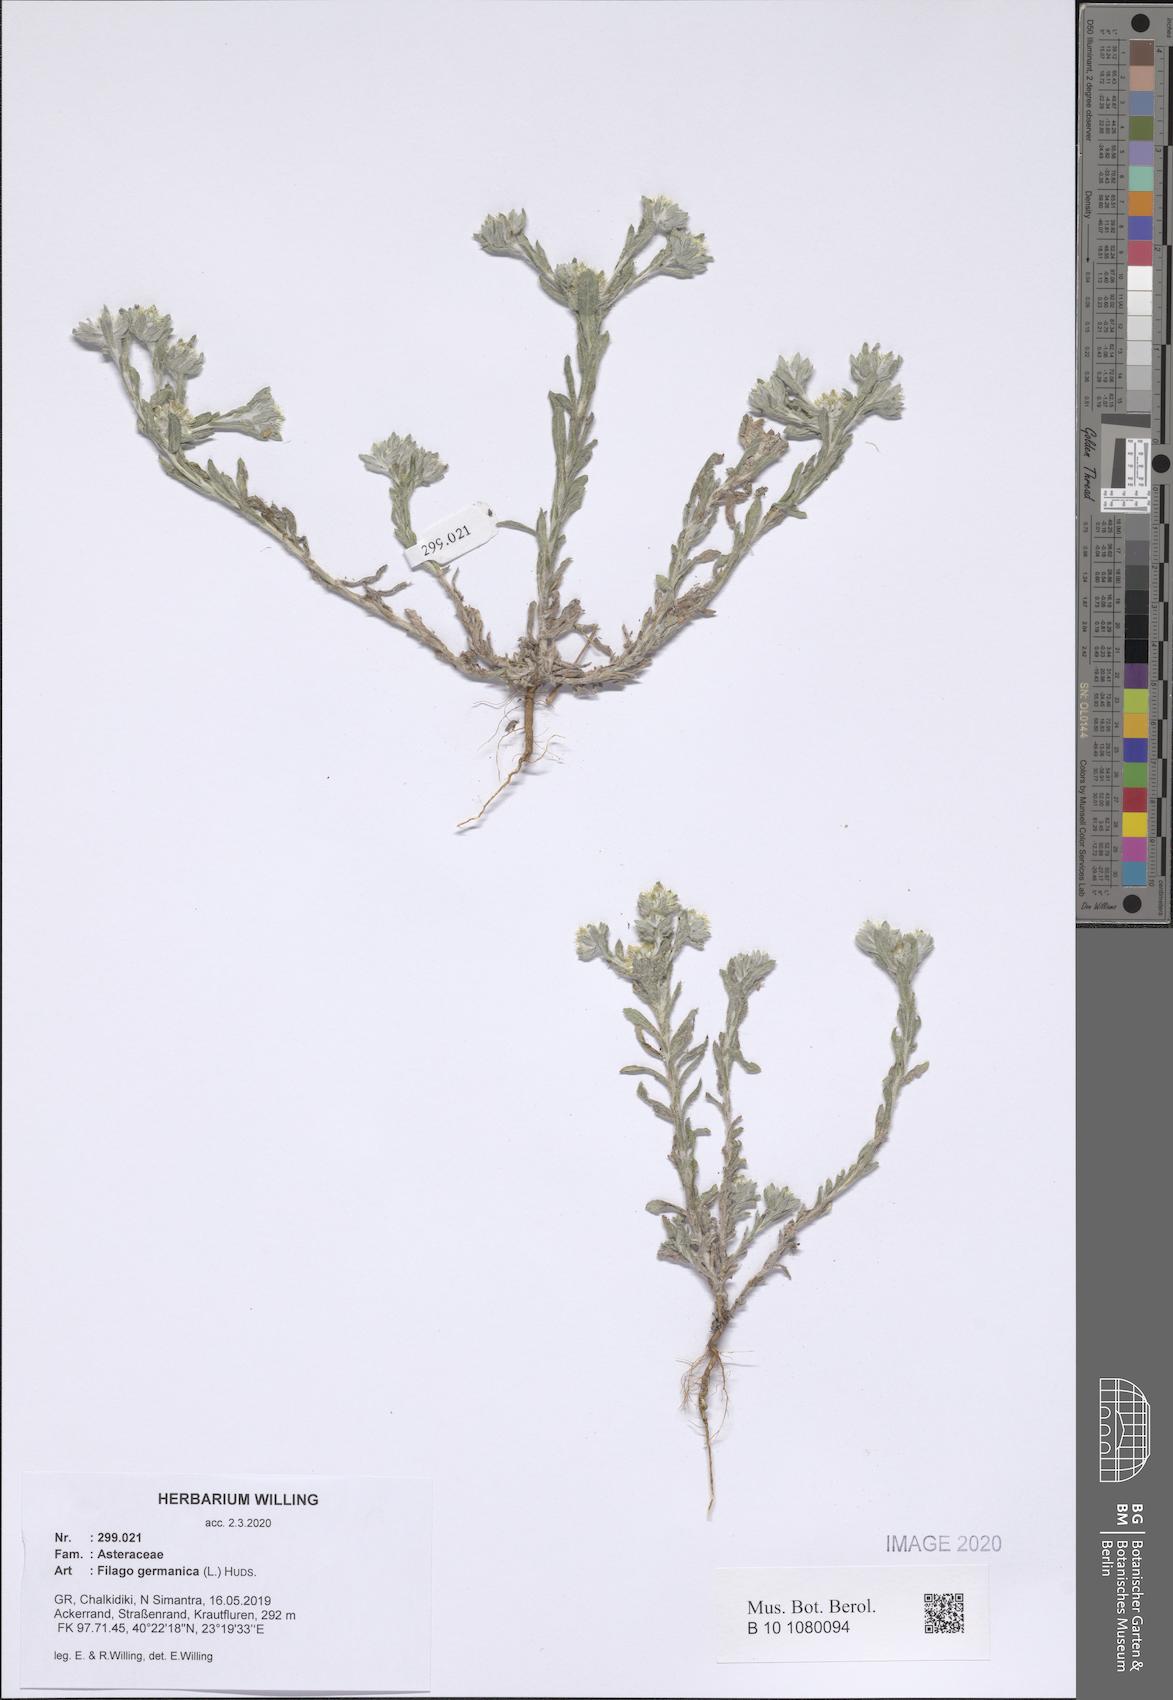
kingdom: Plantae
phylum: Tracheophyta
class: Magnoliopsida
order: Asterales
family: Asteraceae
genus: Filago
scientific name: Filago germanica
